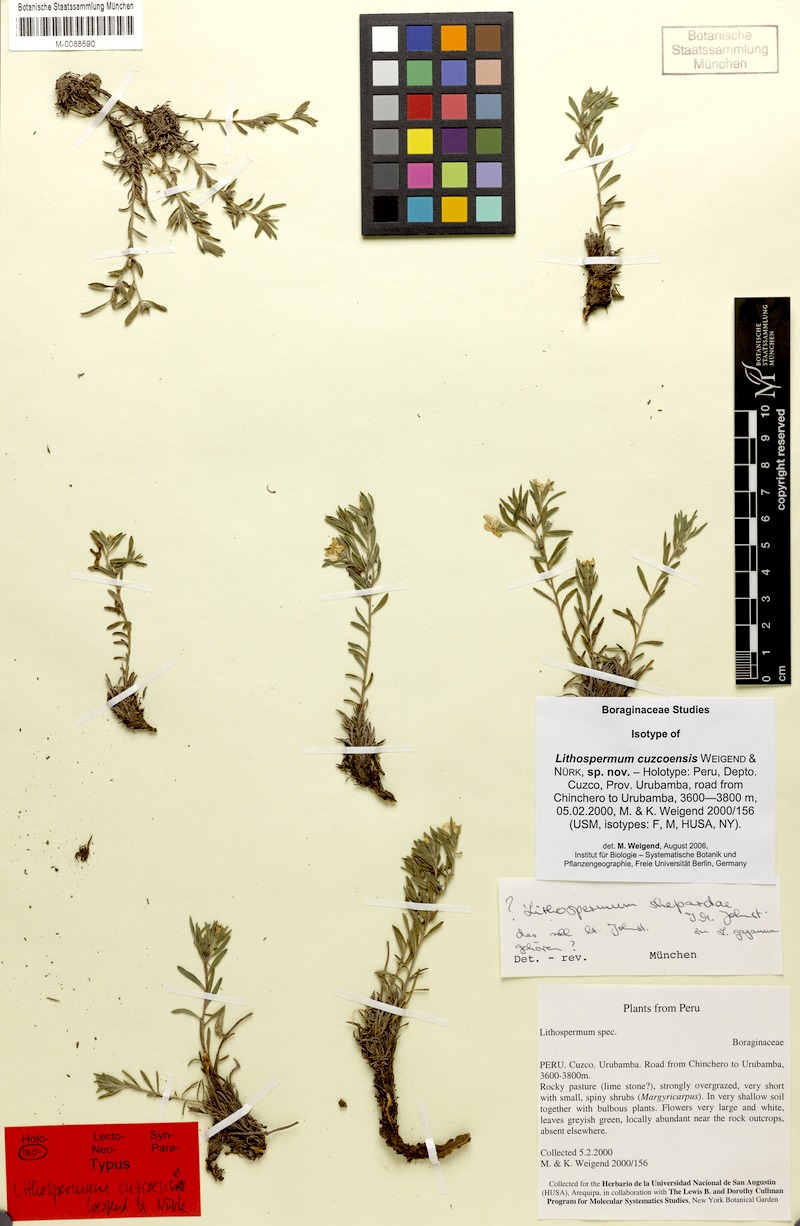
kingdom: Plantae
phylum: Tracheophyta
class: Magnoliopsida
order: Boraginales
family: Boraginaceae
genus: Lithospermum
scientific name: Lithospermum cuzcoense
